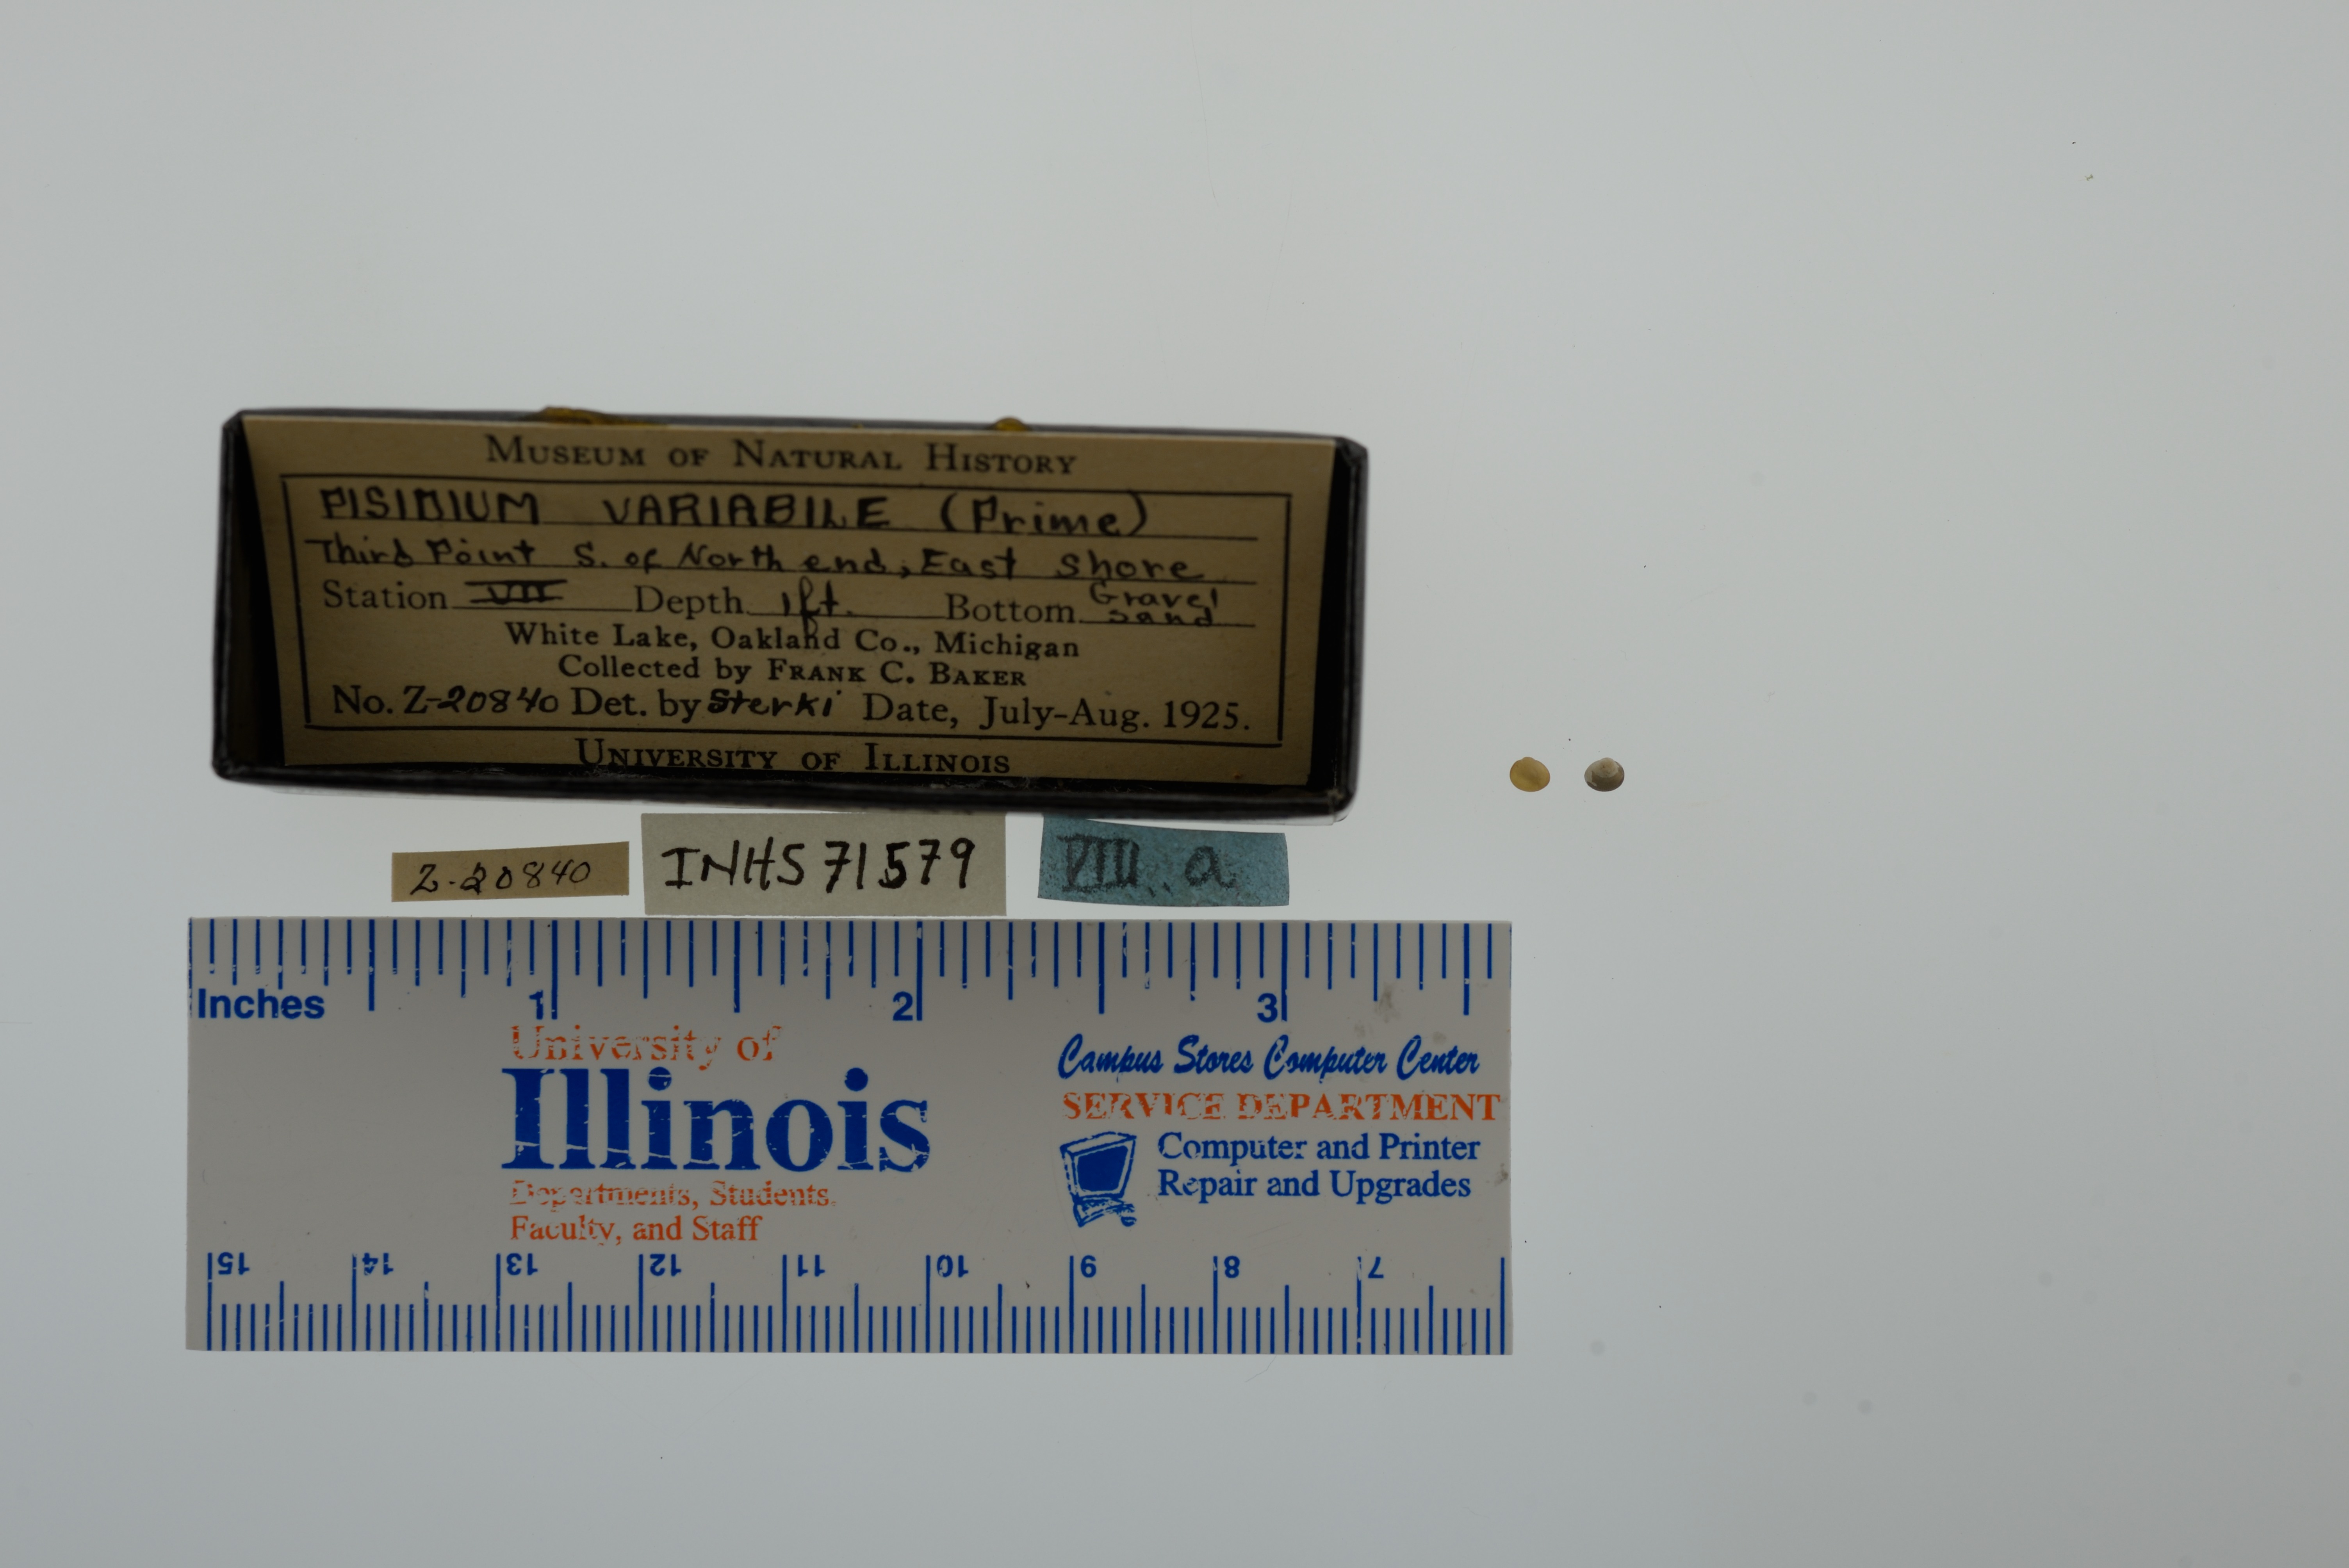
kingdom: Animalia
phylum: Mollusca
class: Bivalvia
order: Sphaeriida
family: Sphaeriidae
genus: Euglesa
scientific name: Euglesa variabilis
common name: Triangular peaclam
